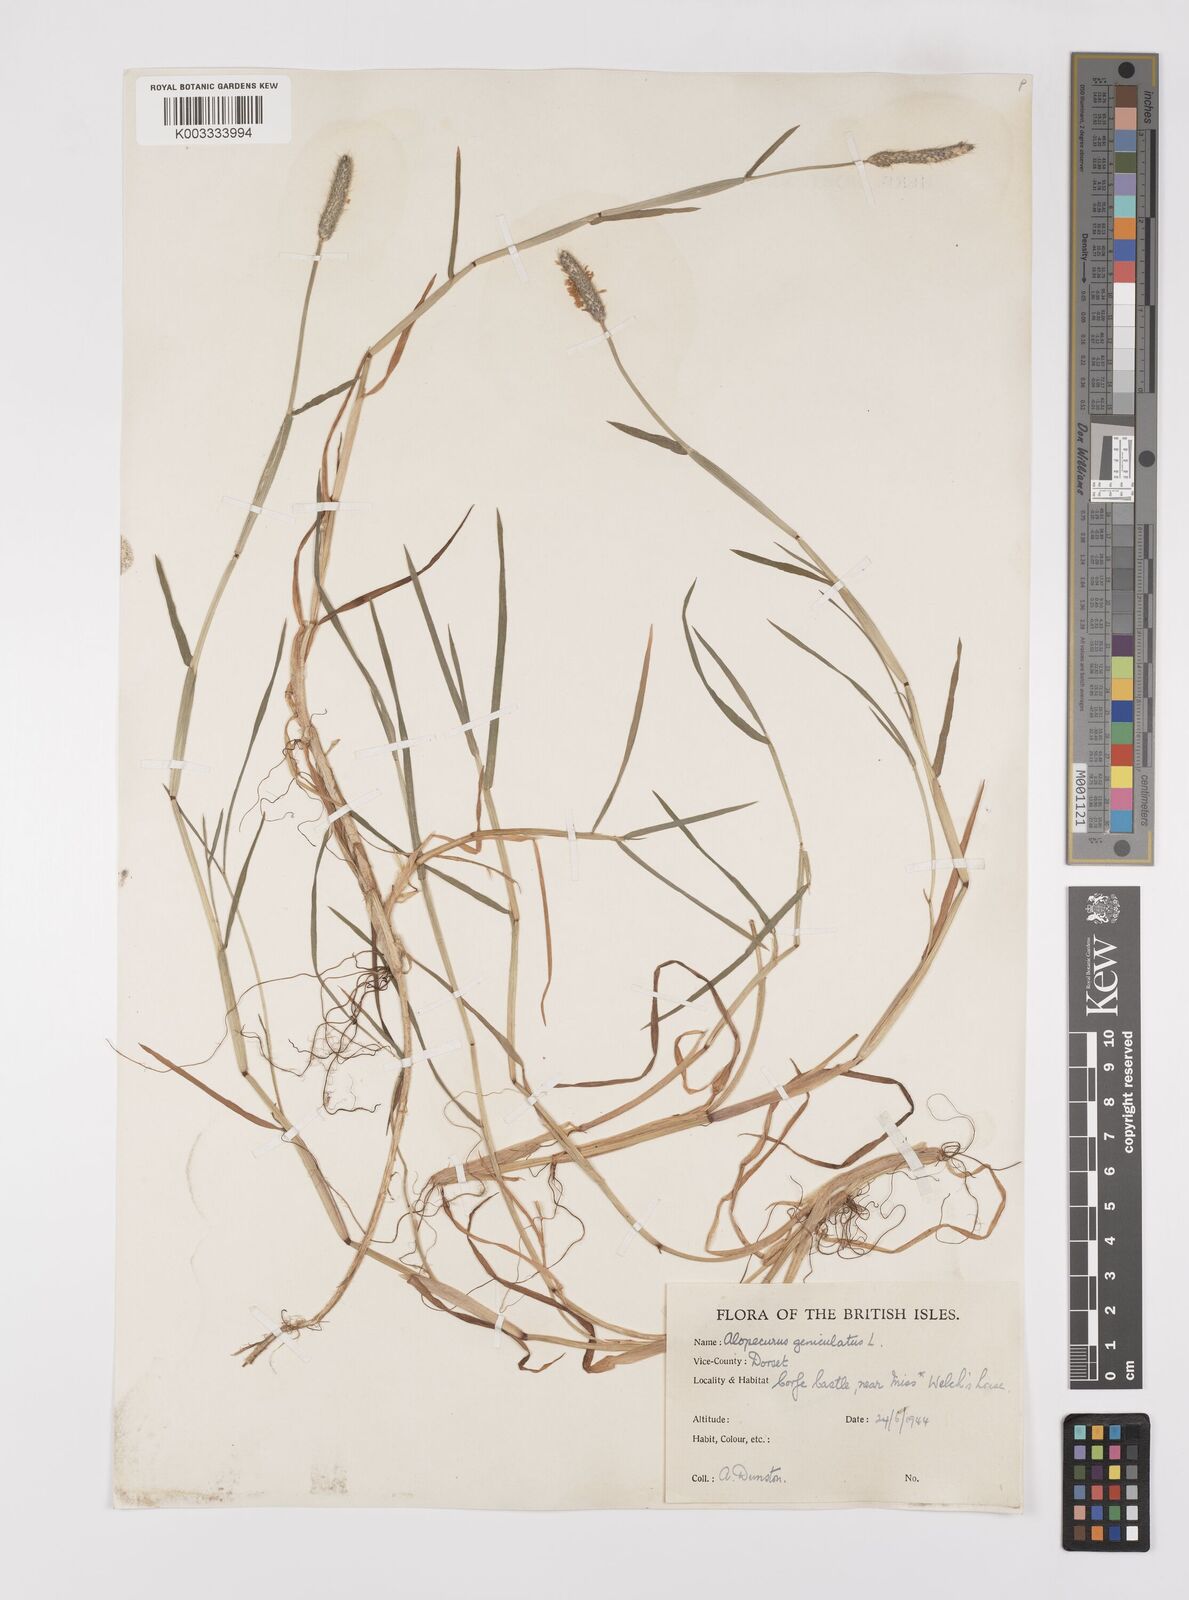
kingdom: Plantae
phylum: Tracheophyta
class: Liliopsida
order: Poales
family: Poaceae
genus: Alopecurus
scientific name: Alopecurus geniculatus
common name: Water foxtail
